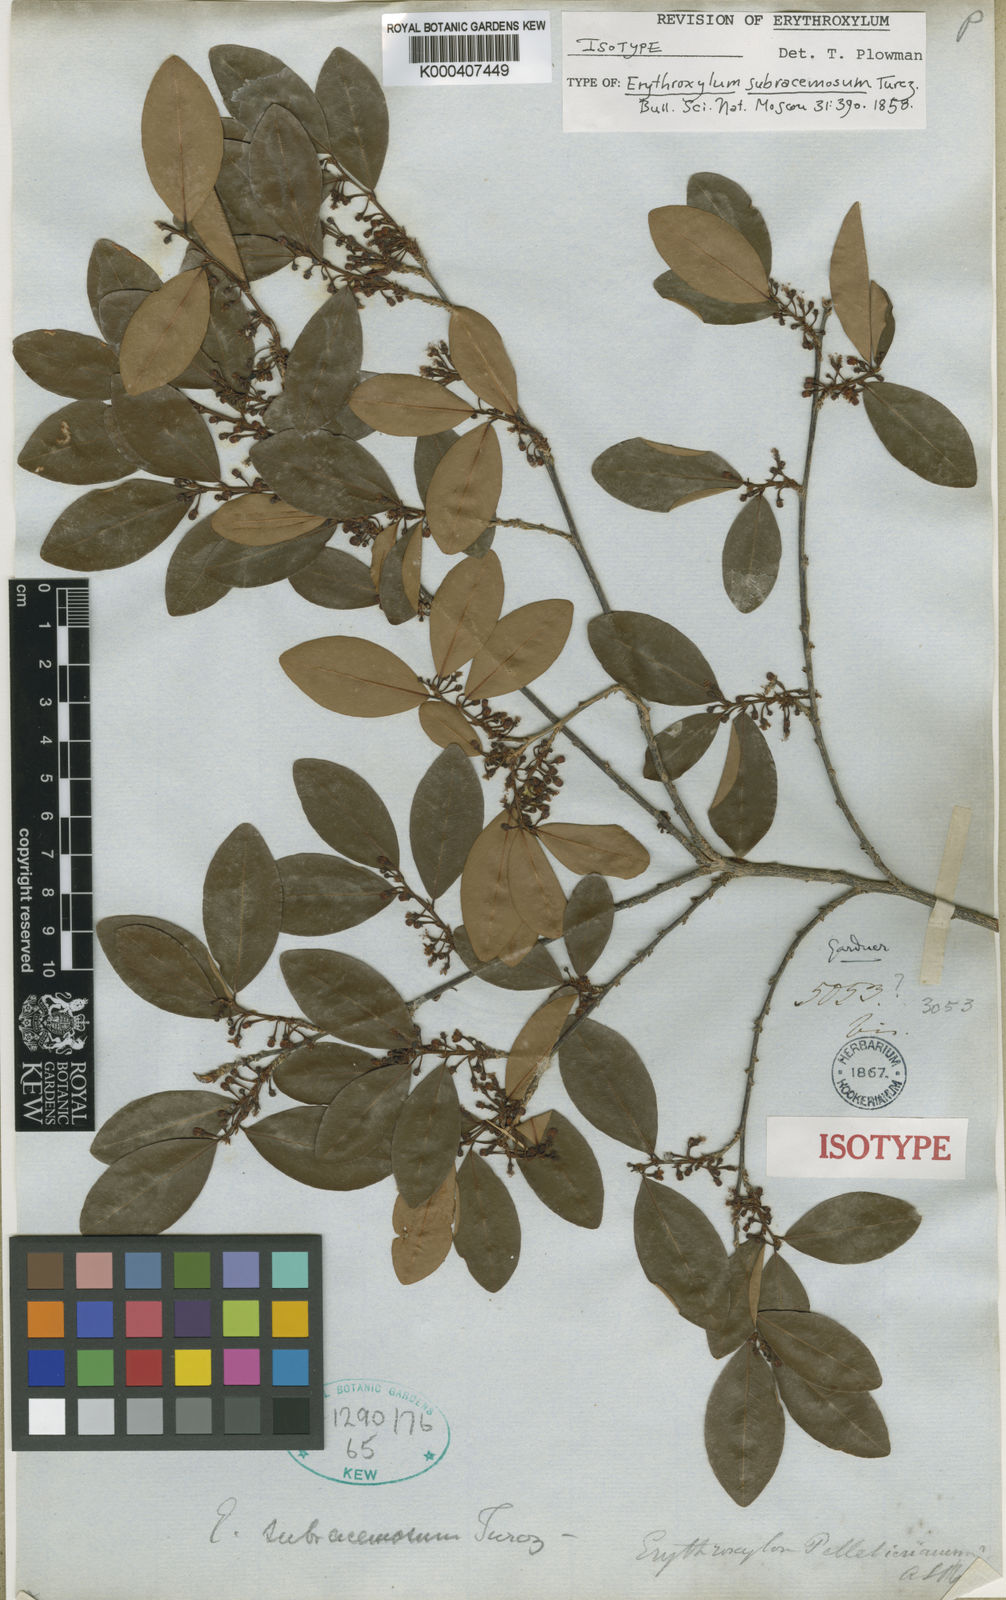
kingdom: Plantae
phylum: Tracheophyta
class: Magnoliopsida
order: Malpighiales
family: Erythroxylaceae
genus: Erythroxylum
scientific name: Erythroxylum subracemosum
